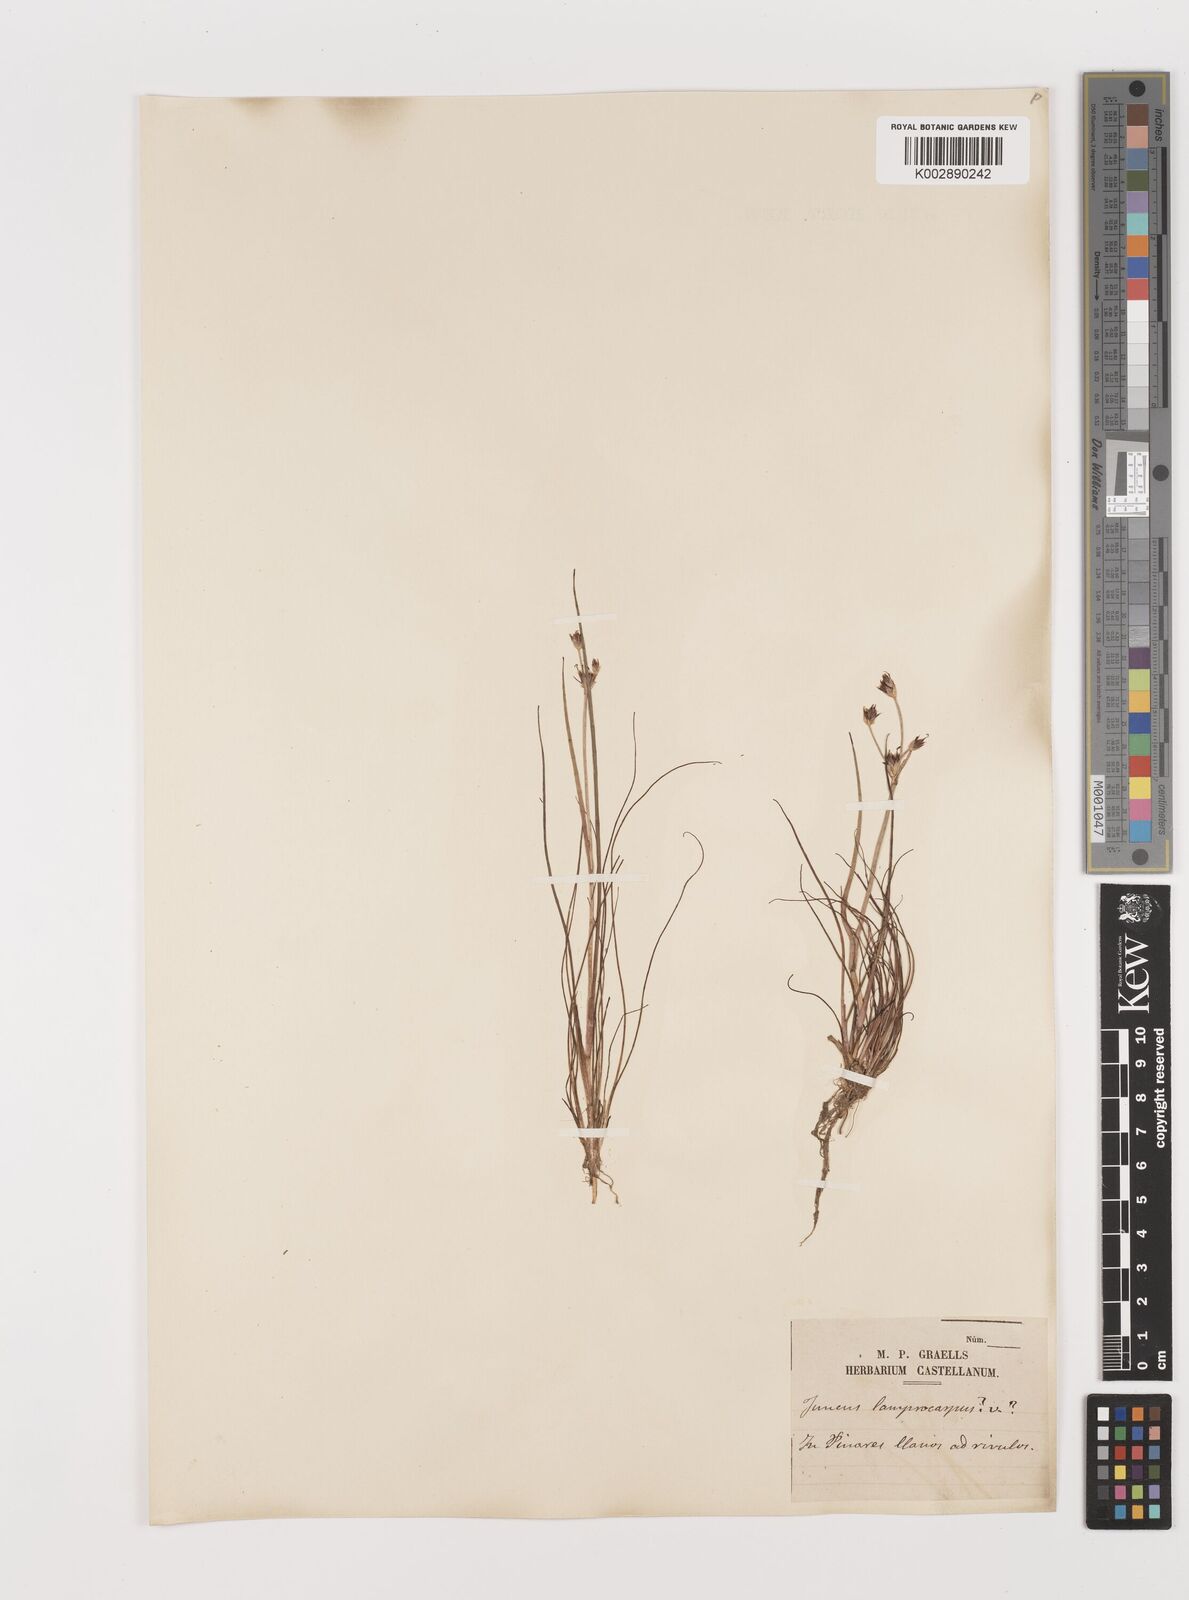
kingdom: Plantae
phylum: Tracheophyta
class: Liliopsida
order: Poales
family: Juncaceae
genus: Juncus
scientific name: Juncus articulatus
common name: Jointed rush
